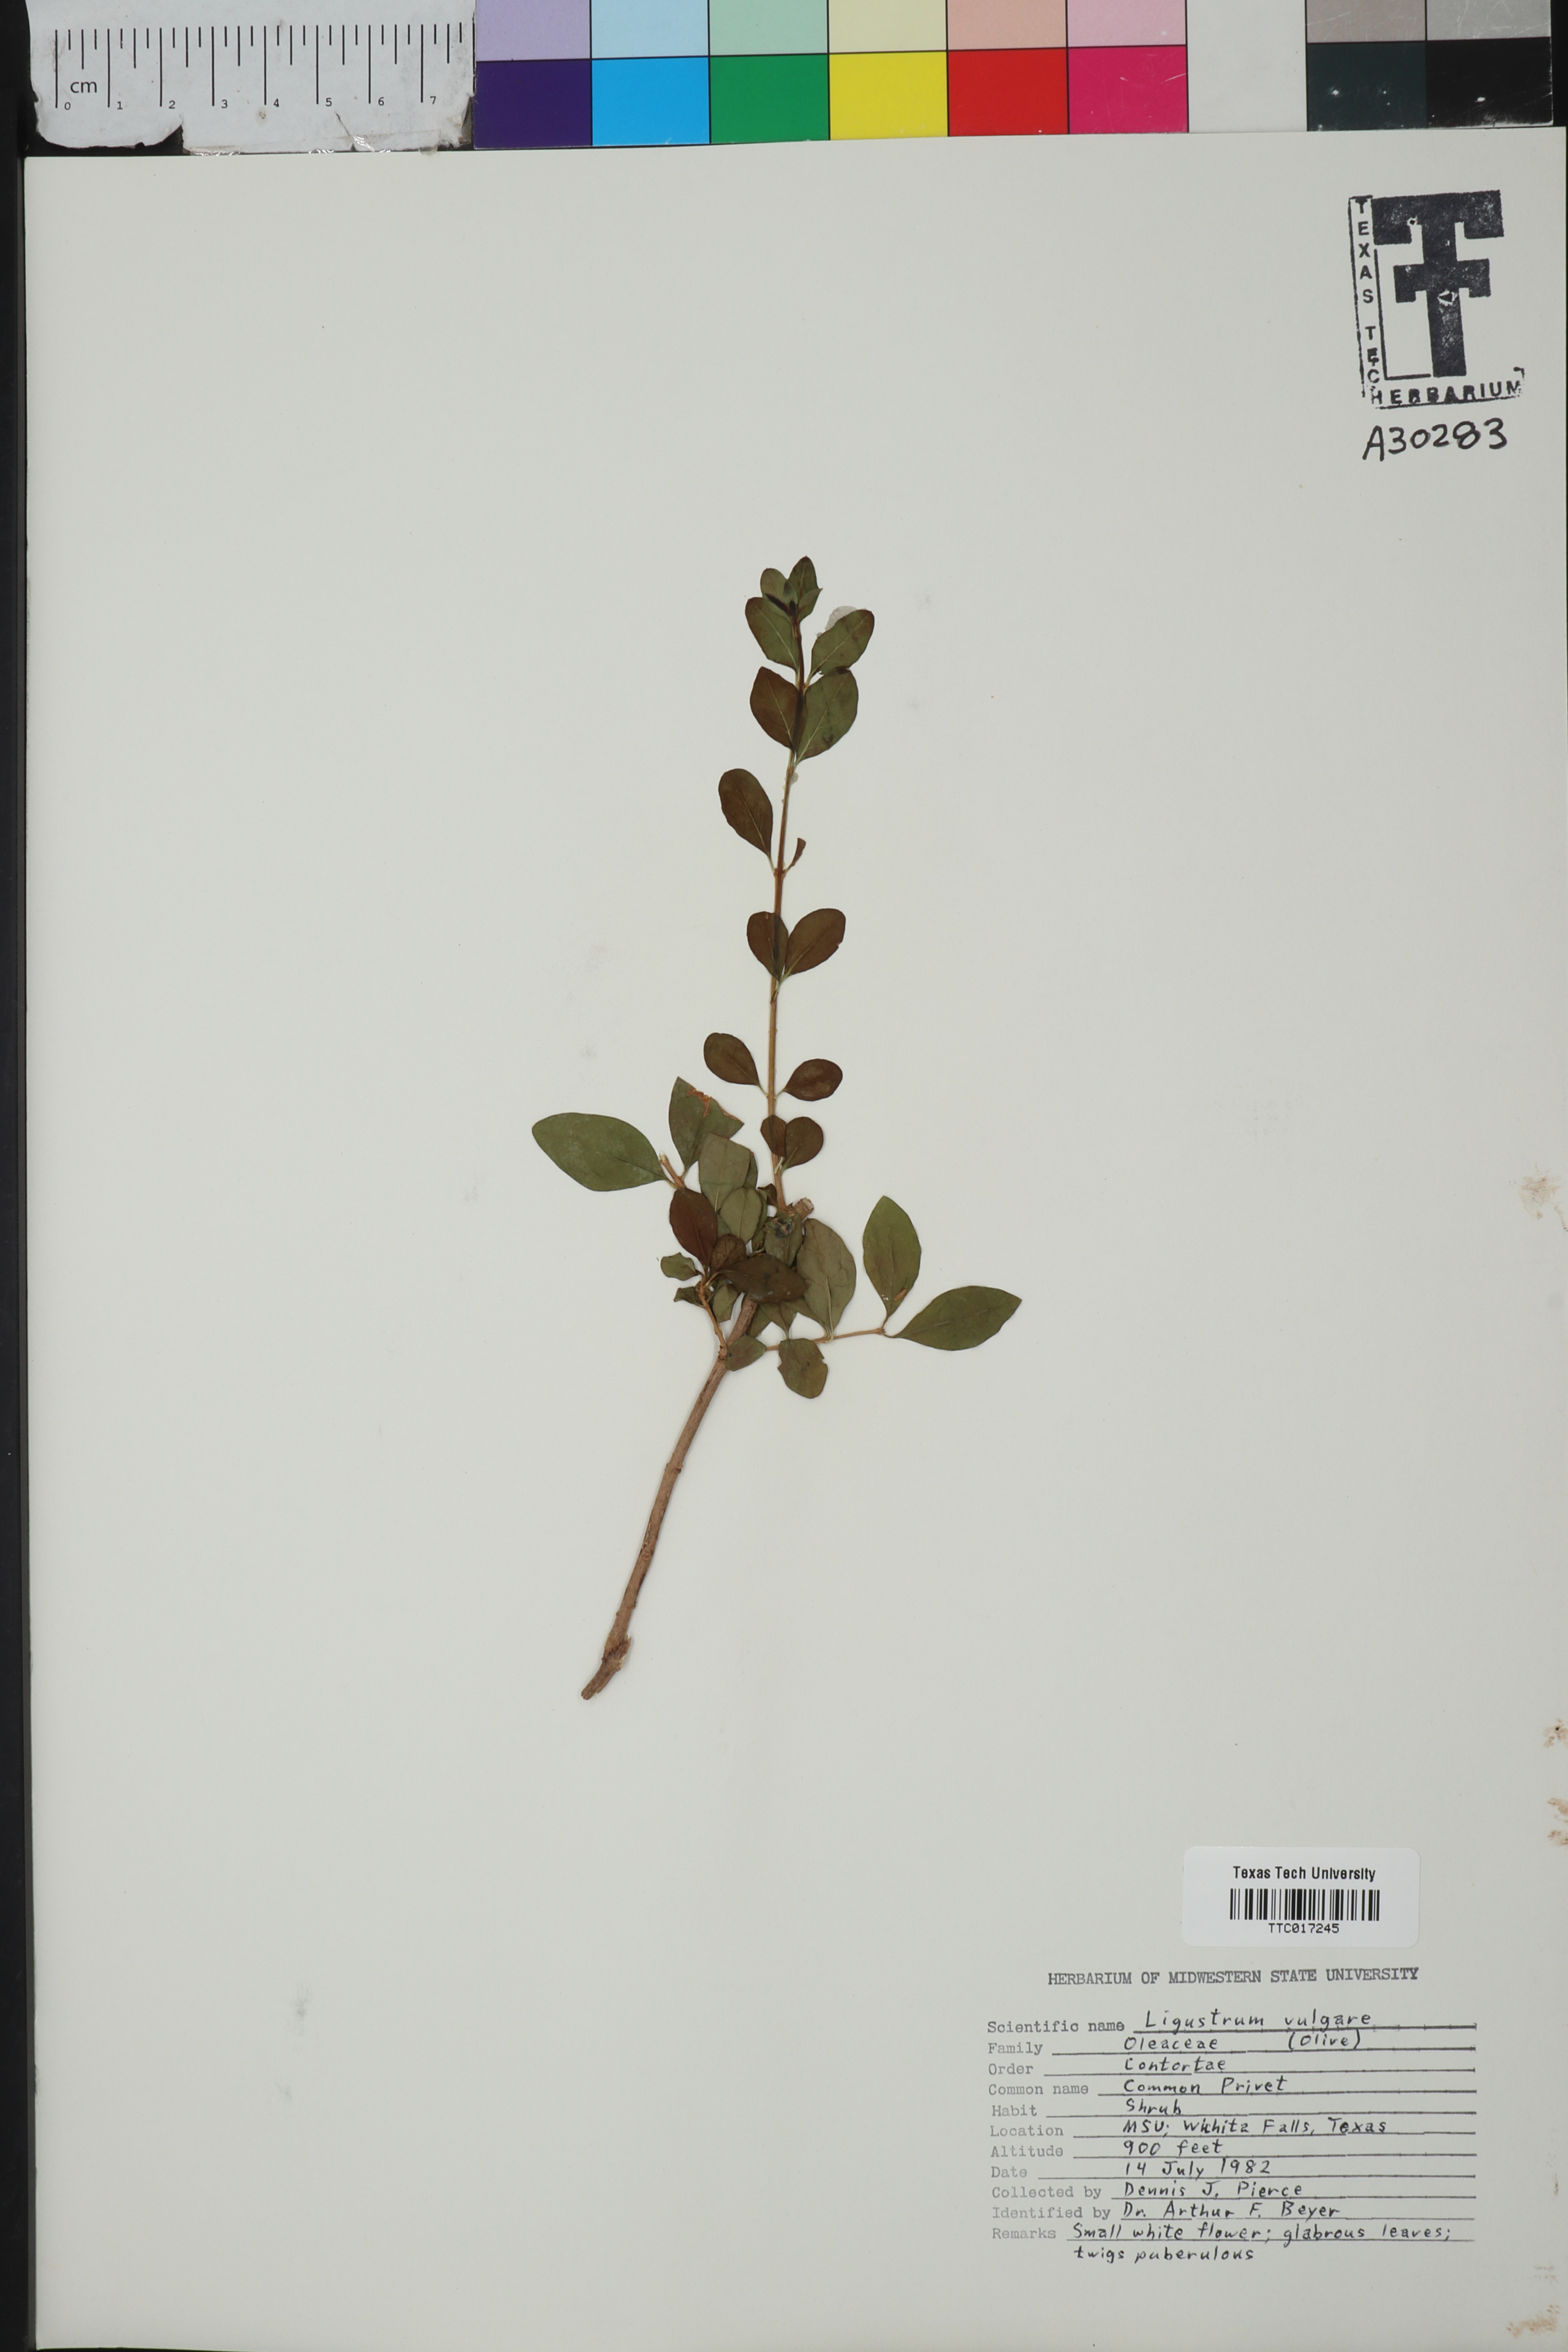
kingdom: Plantae
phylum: Tracheophyta
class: Magnoliopsida
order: Lamiales
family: Oleaceae
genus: Ligustrum
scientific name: Ligustrum lucidum
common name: Glossy privet
